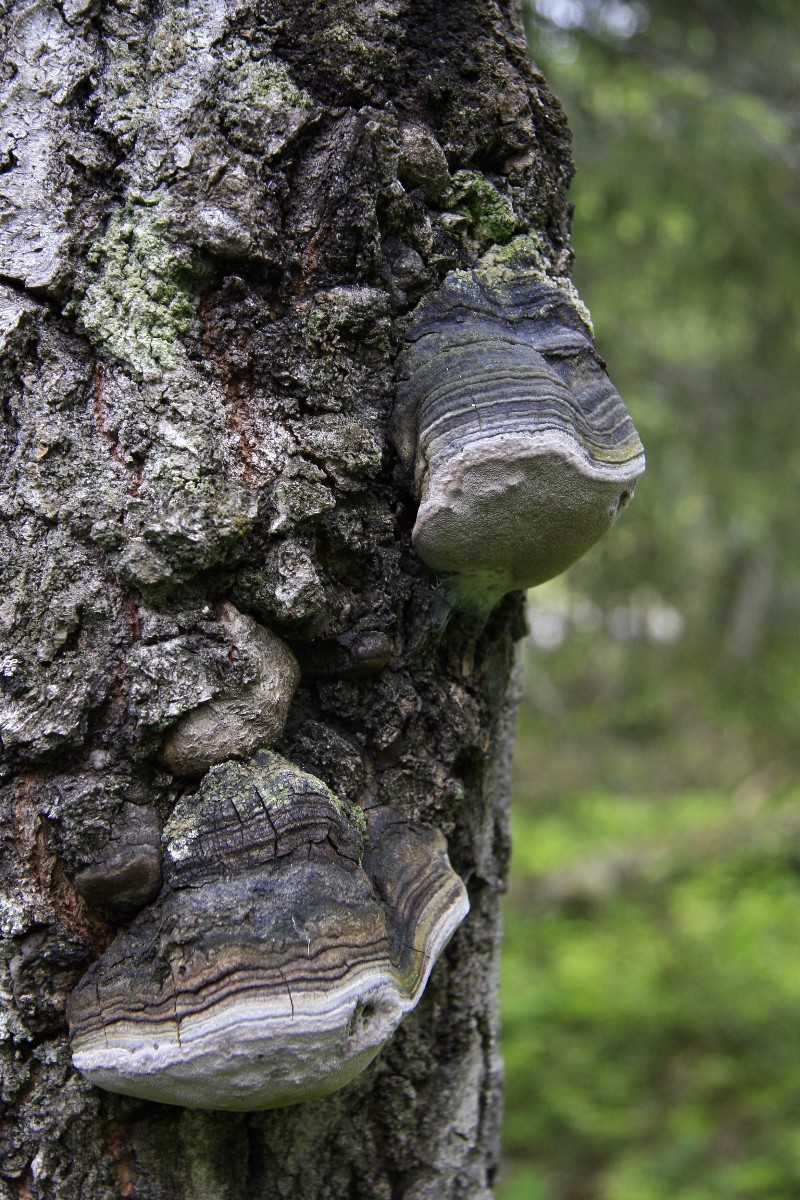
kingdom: Fungi
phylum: Basidiomycota
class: Agaricomycetes
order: Hymenochaetales
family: Hymenochaetaceae
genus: Phellinus
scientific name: Phellinus tremulae
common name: aspe-ildporesvamp
